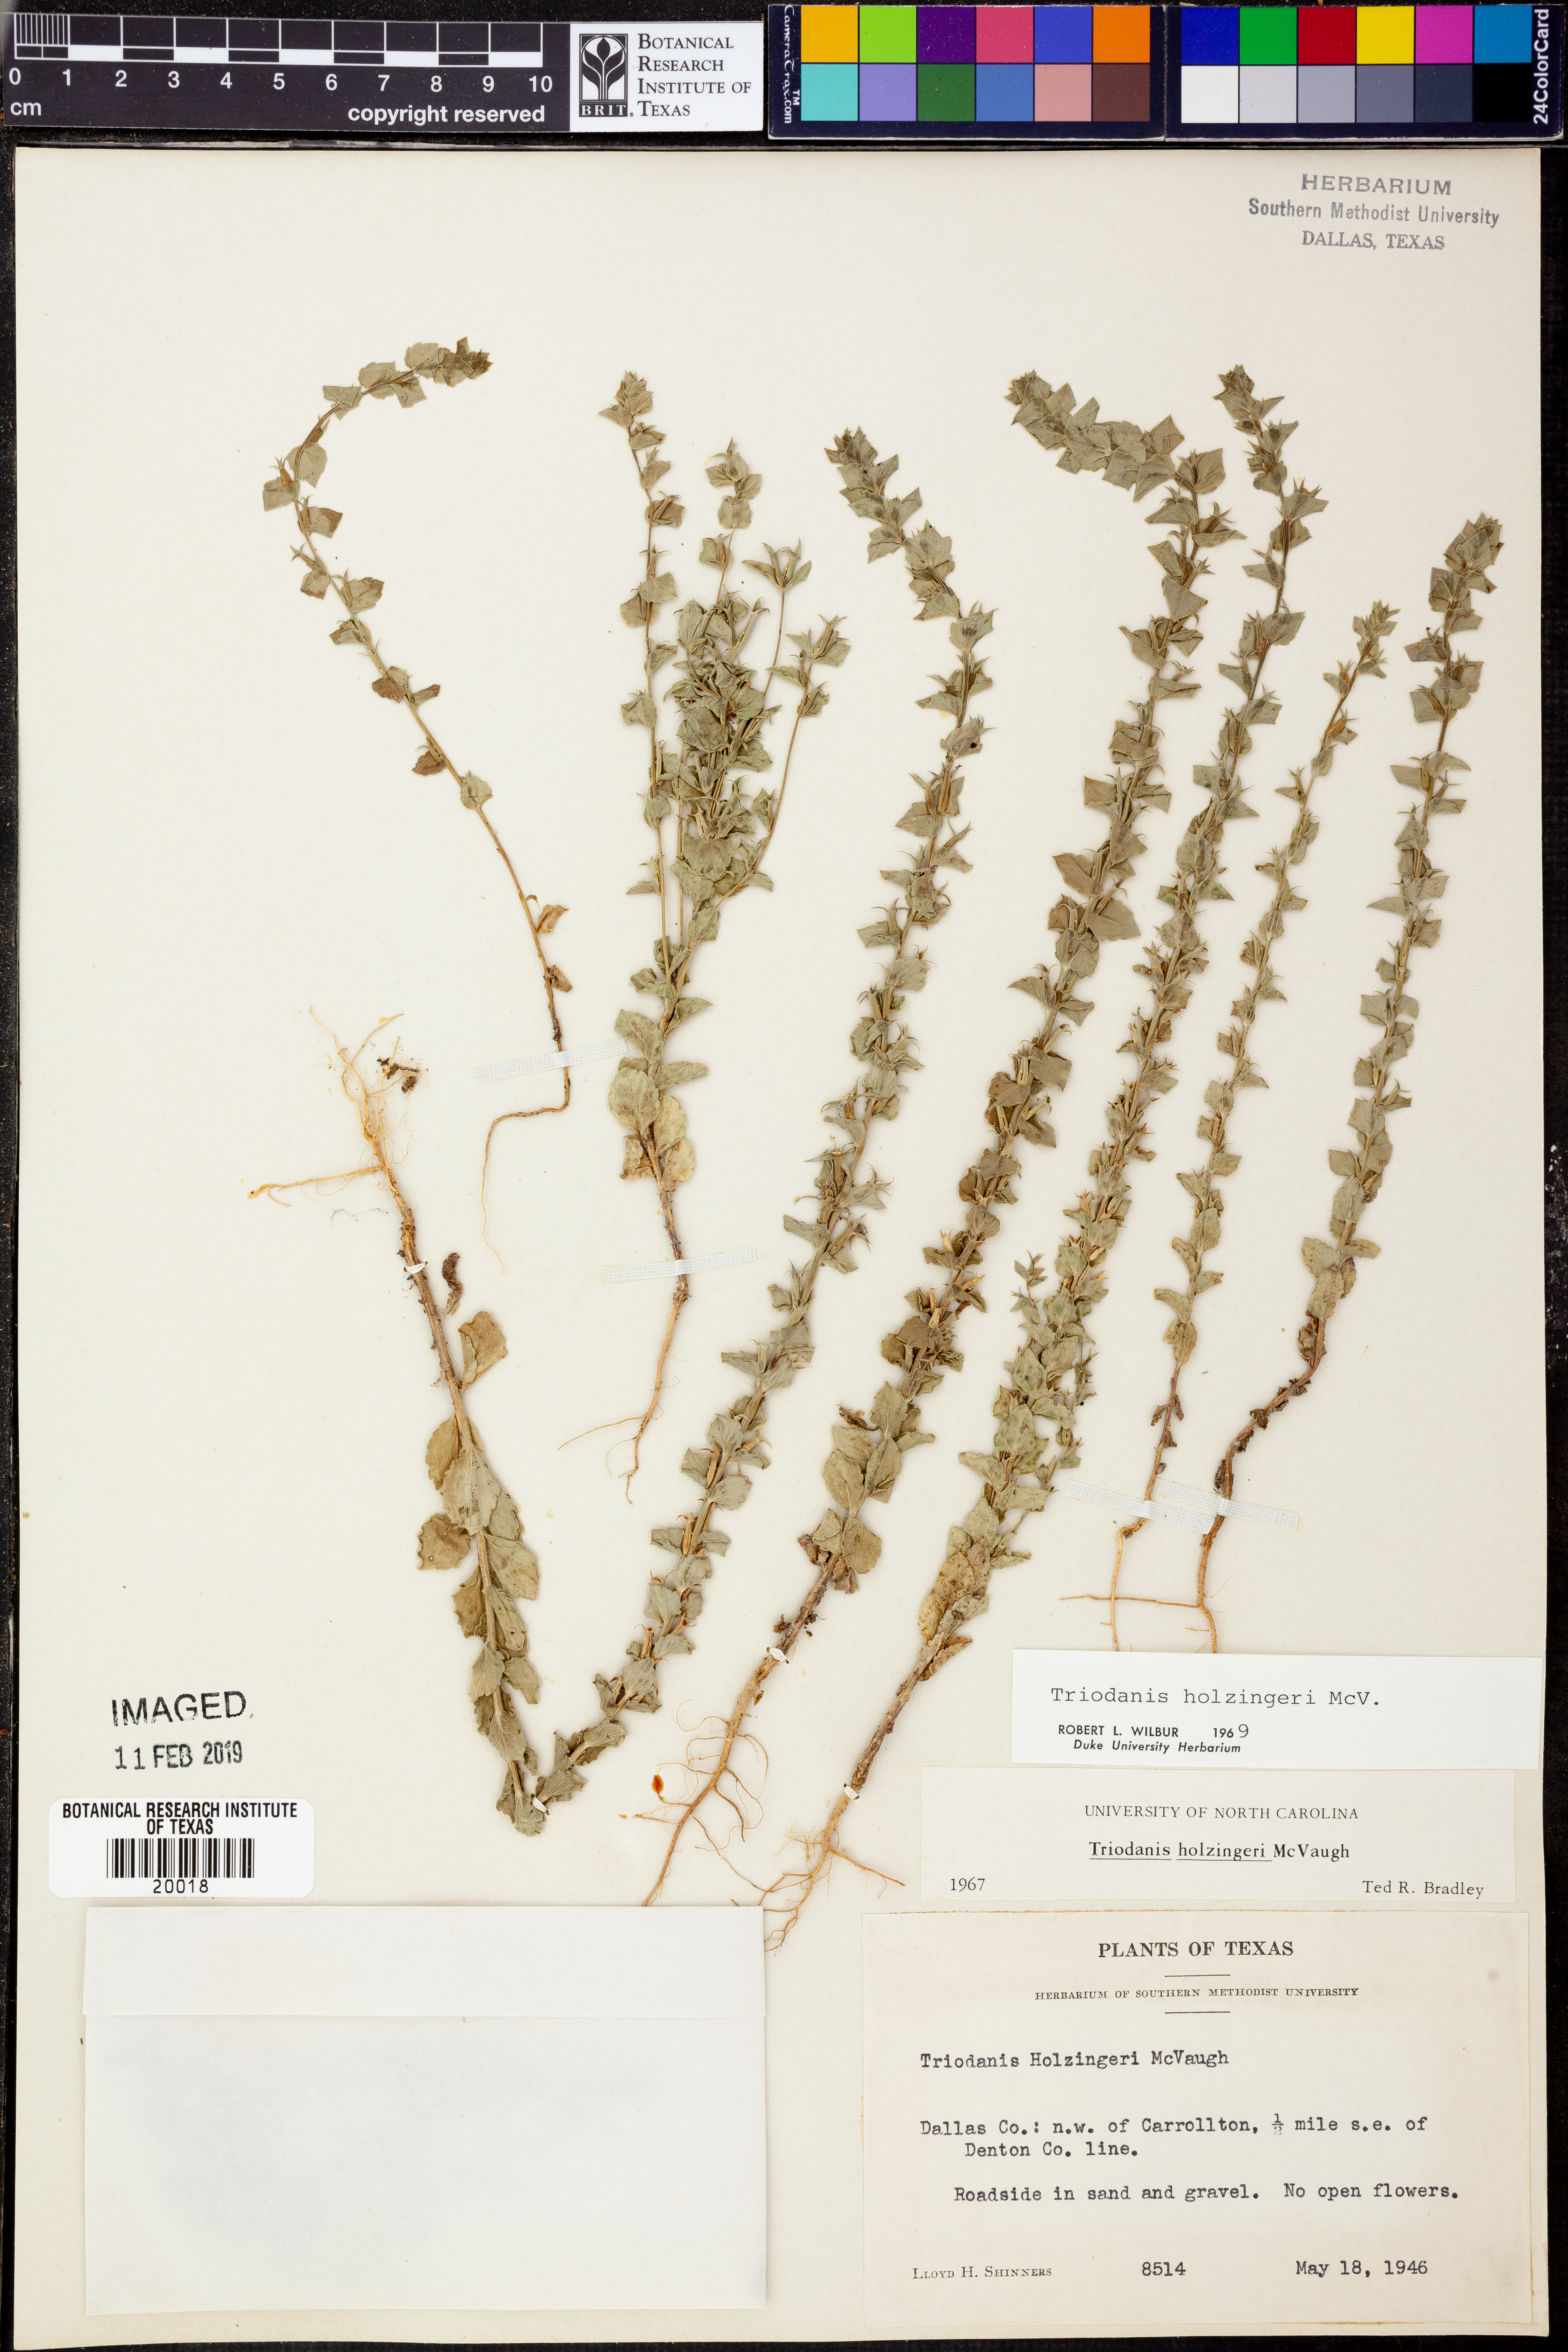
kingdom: Plantae
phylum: Tracheophyta
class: Magnoliopsida
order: Asterales
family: Campanulaceae
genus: Triodanis
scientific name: Triodanis holzingeri
